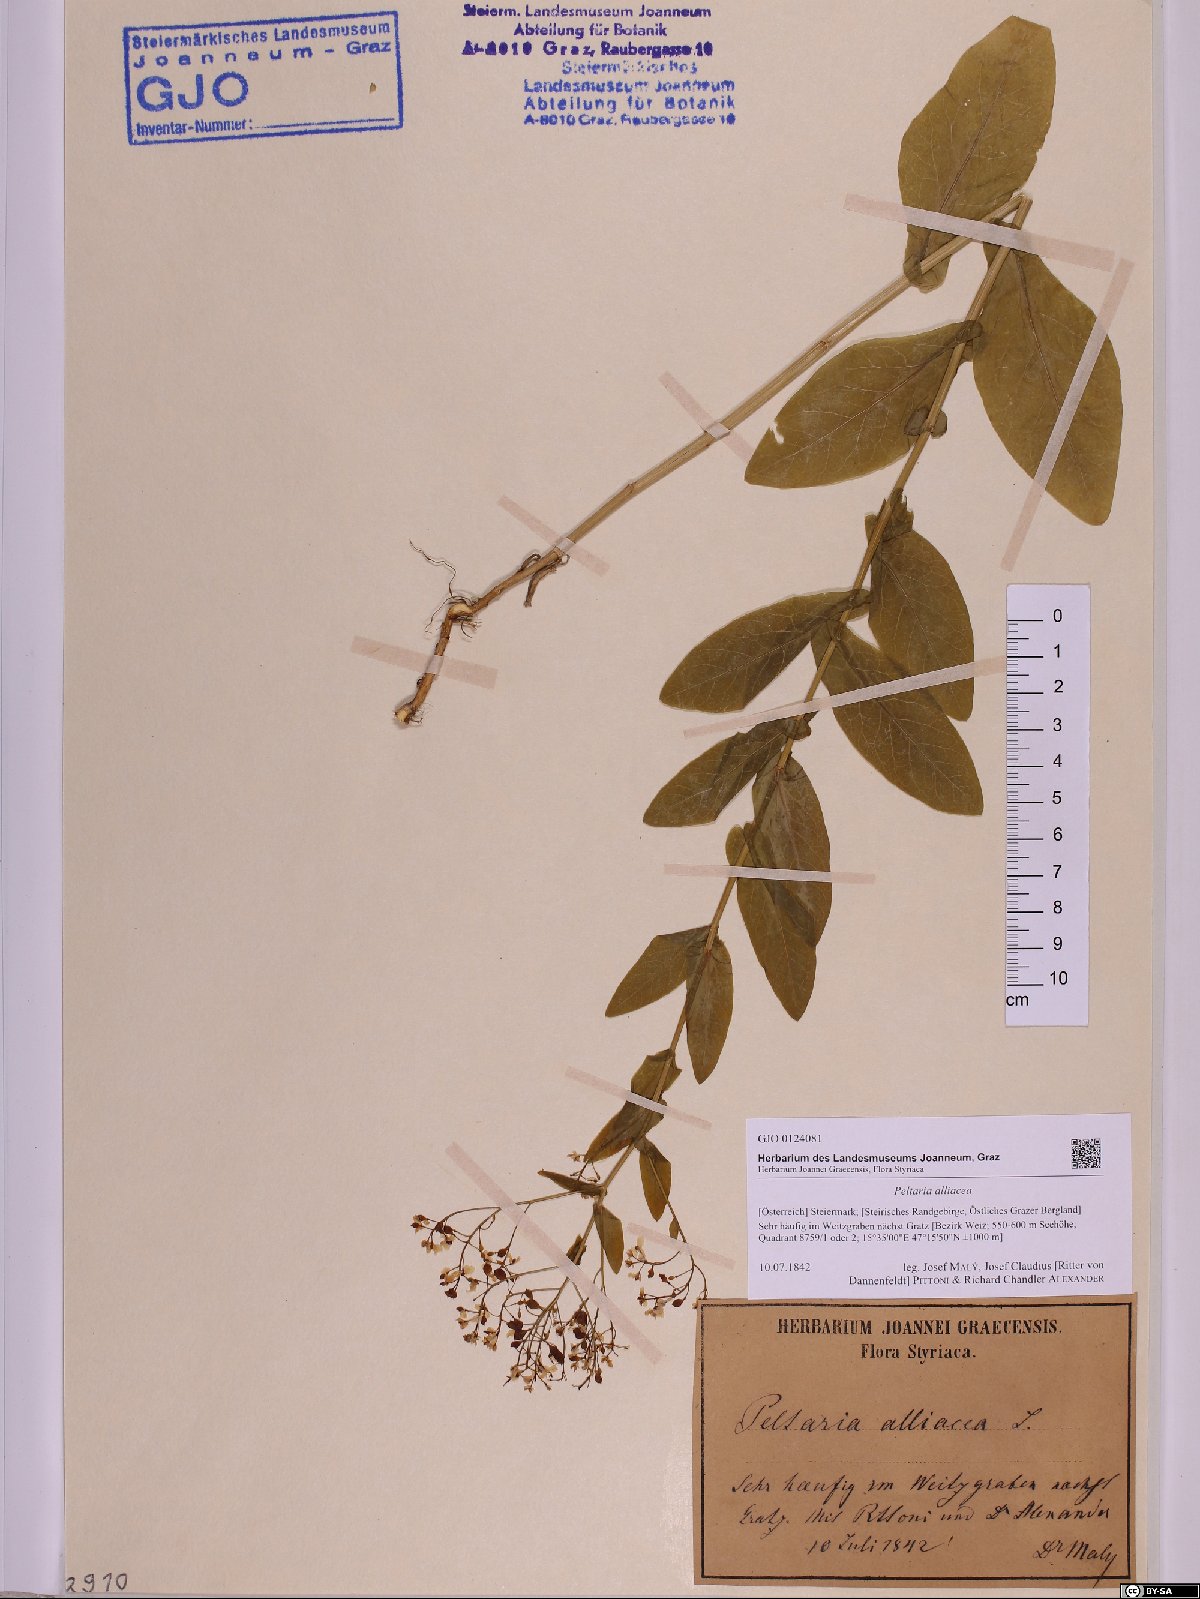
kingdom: Plantae
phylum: Tracheophyta
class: Magnoliopsida
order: Brassicales
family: Brassicaceae
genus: Peltaria
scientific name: Peltaria alliacea
